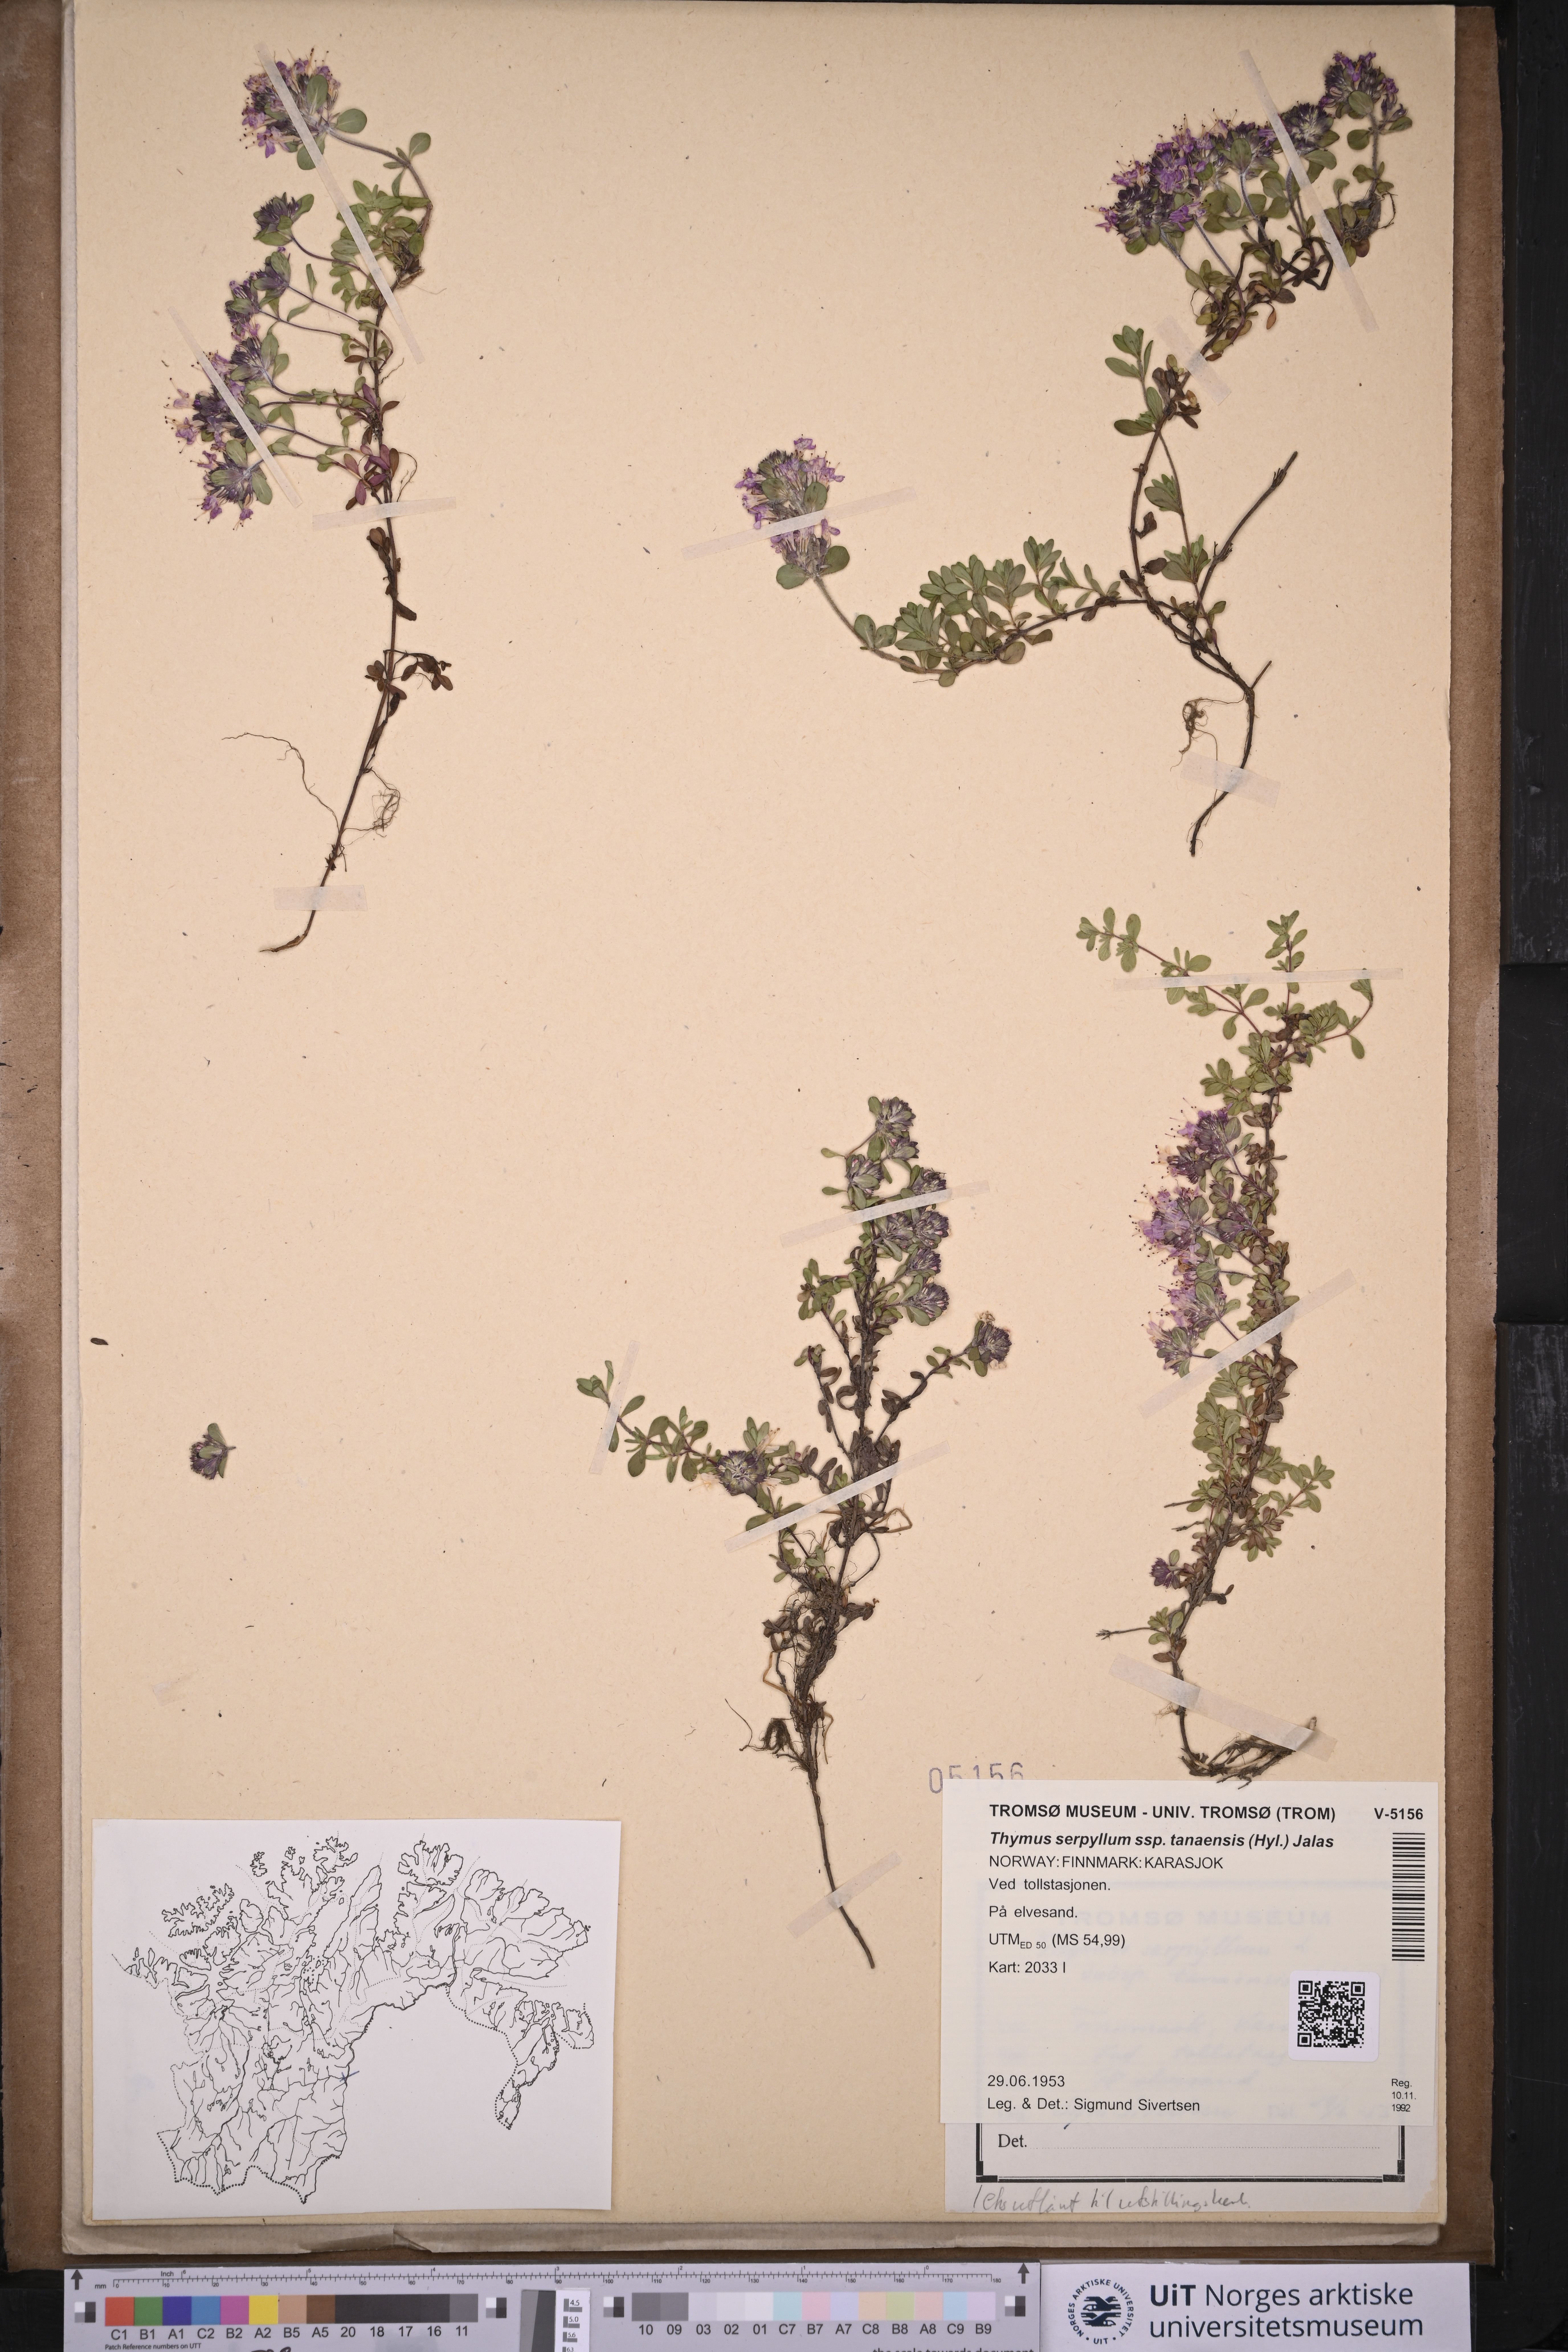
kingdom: Plantae
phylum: Tracheophyta
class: Magnoliopsida
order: Lamiales
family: Lamiaceae
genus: Thymus
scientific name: Thymus serpyllum
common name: Breckland thyme
